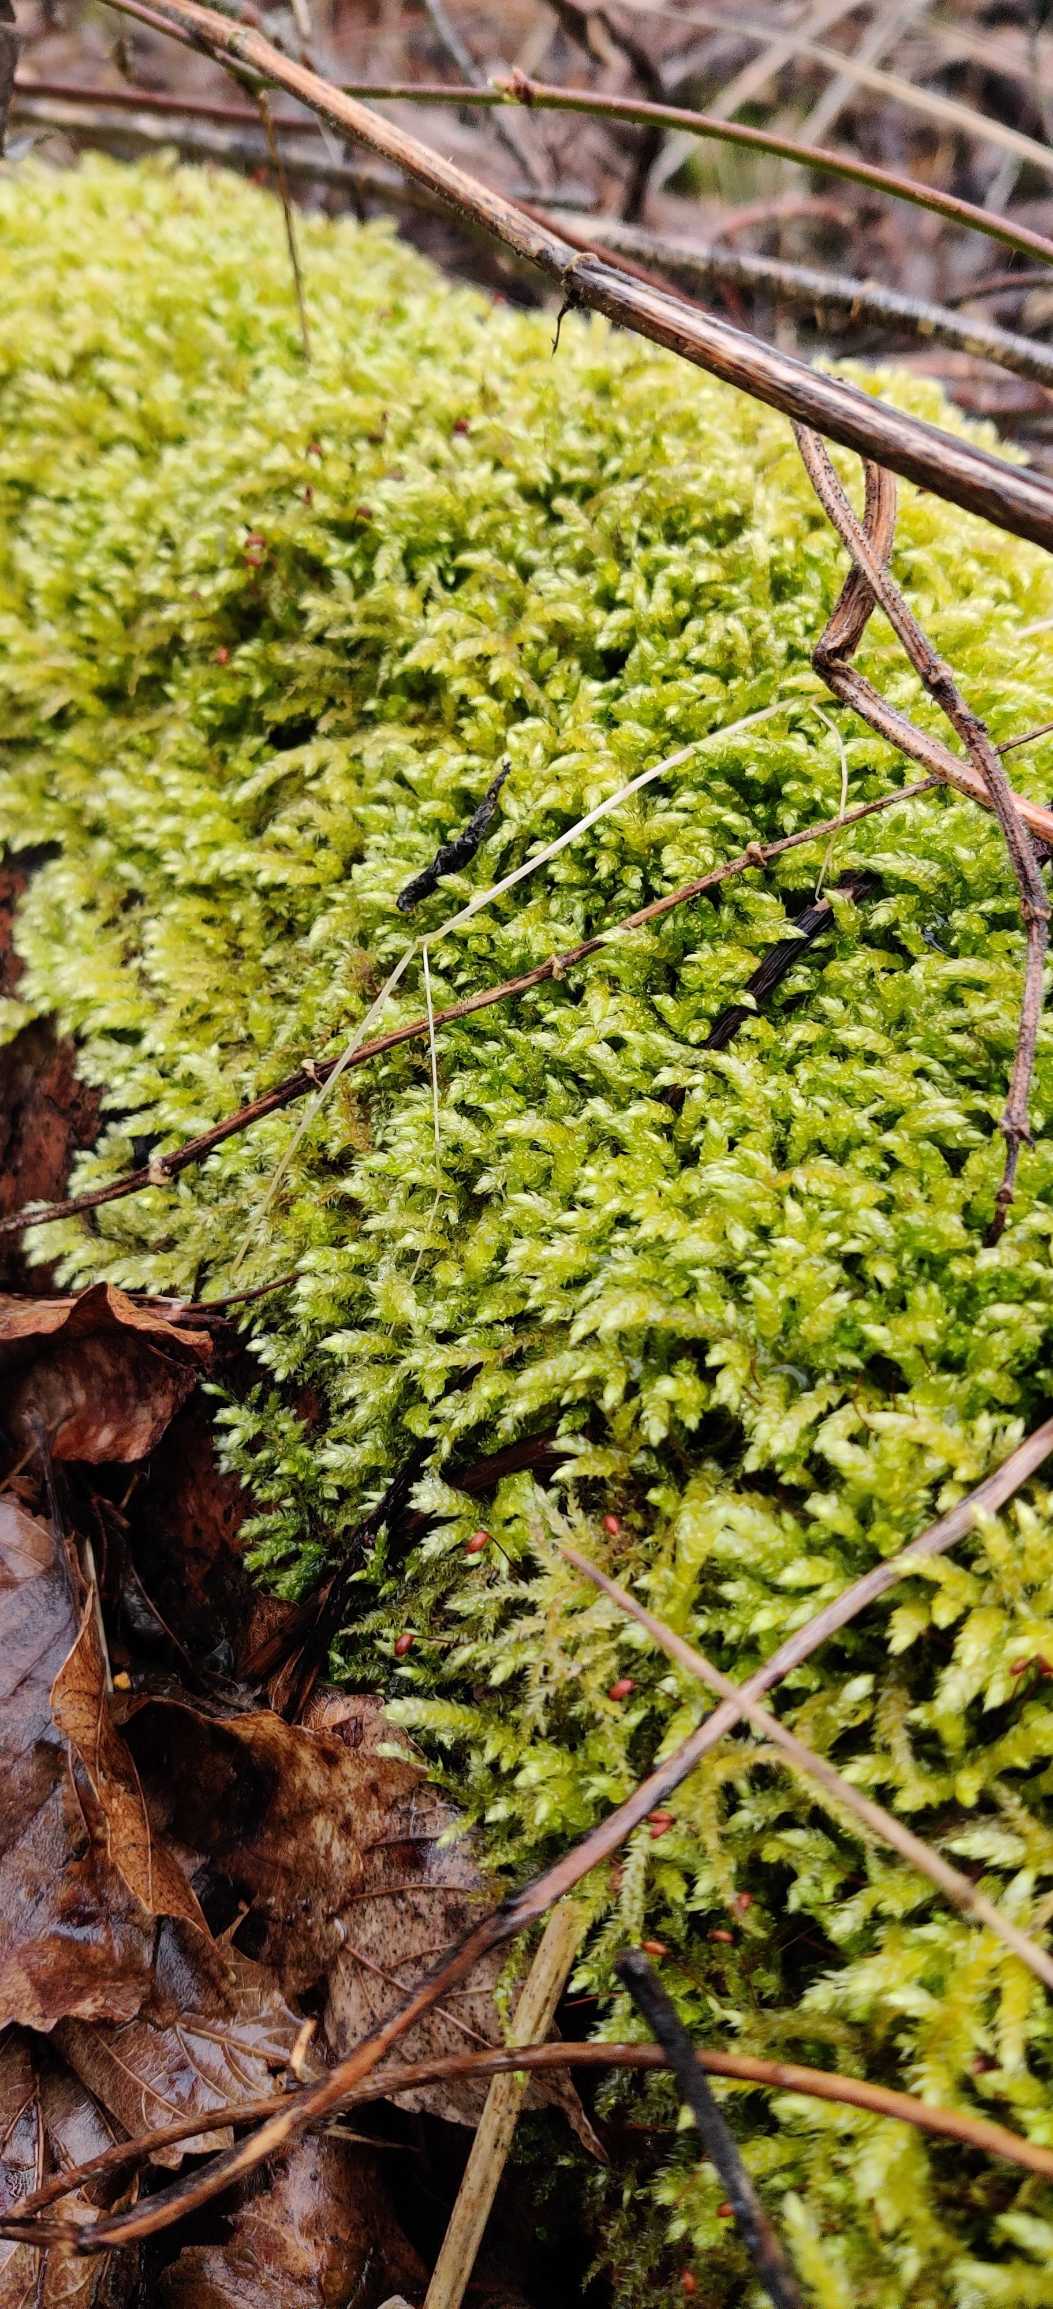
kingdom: Plantae
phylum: Bryophyta
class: Bryopsida
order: Hypnales
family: Brachytheciaceae
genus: Brachythecium
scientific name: Brachythecium rutabulum
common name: Almindelig kortkapsel
